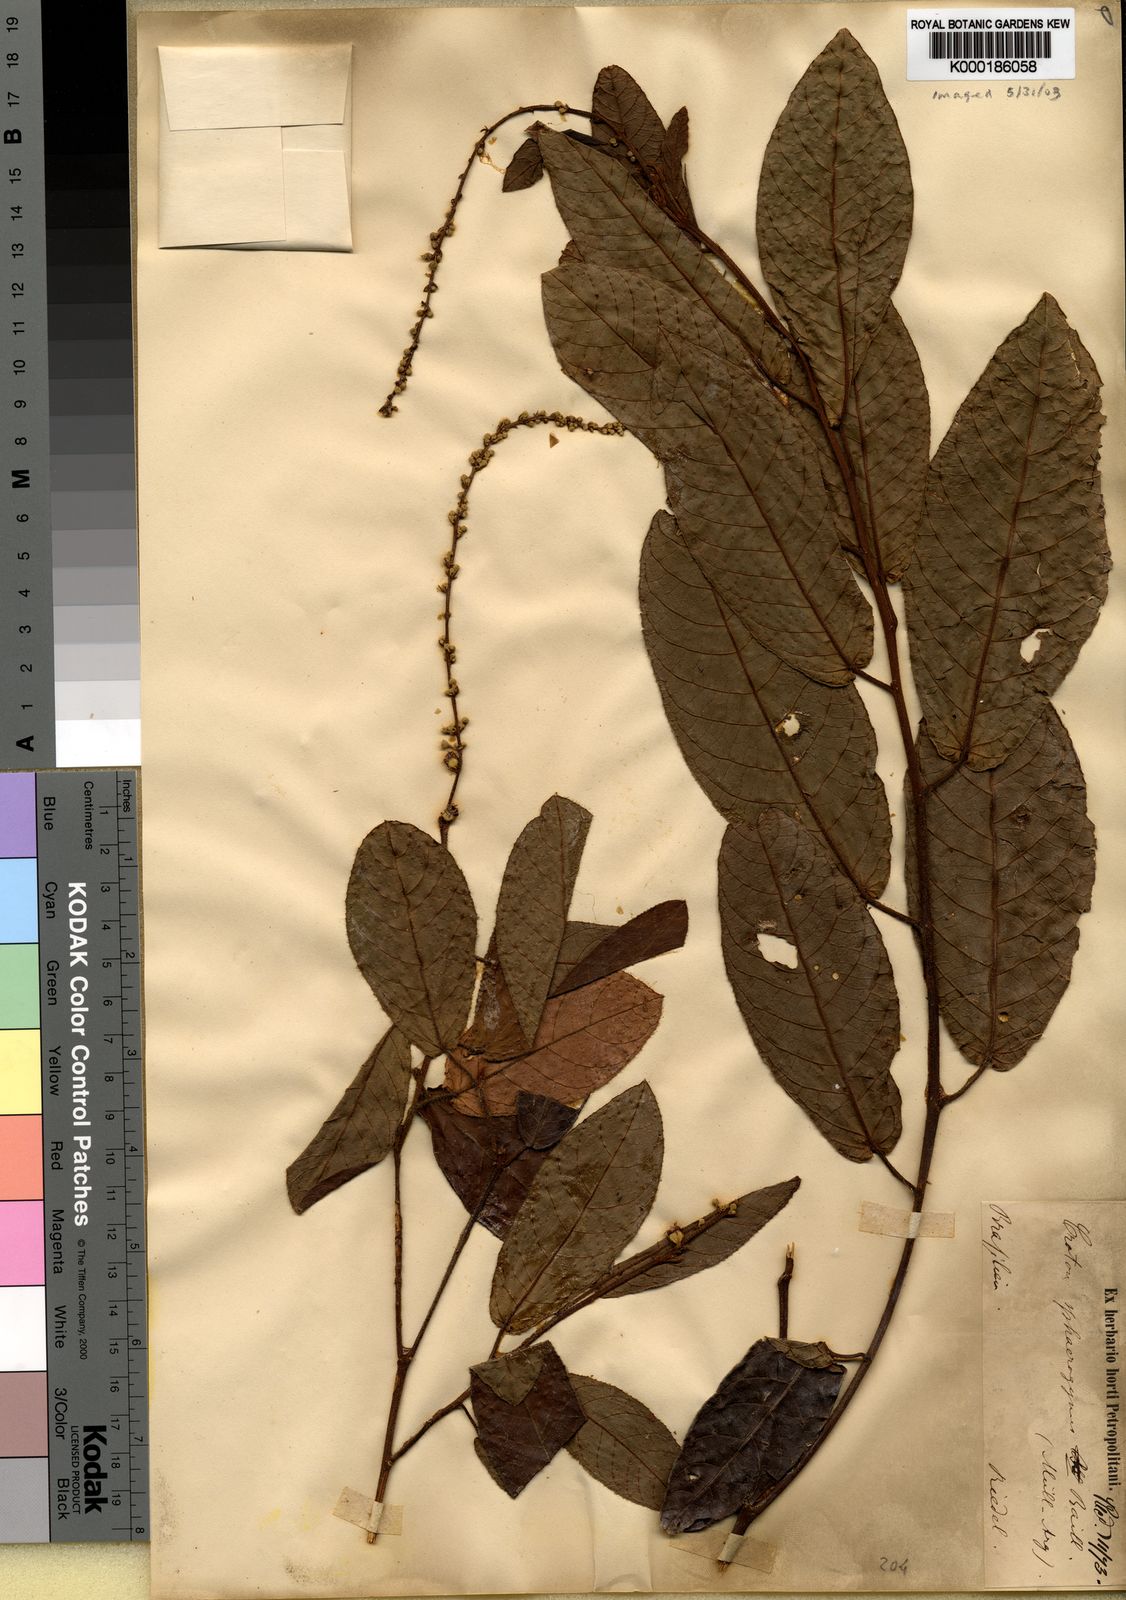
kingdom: Plantae
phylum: Tracheophyta
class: Magnoliopsida
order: Malpighiales
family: Euphorbiaceae
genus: Croton
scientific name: Croton sphaerogynus
